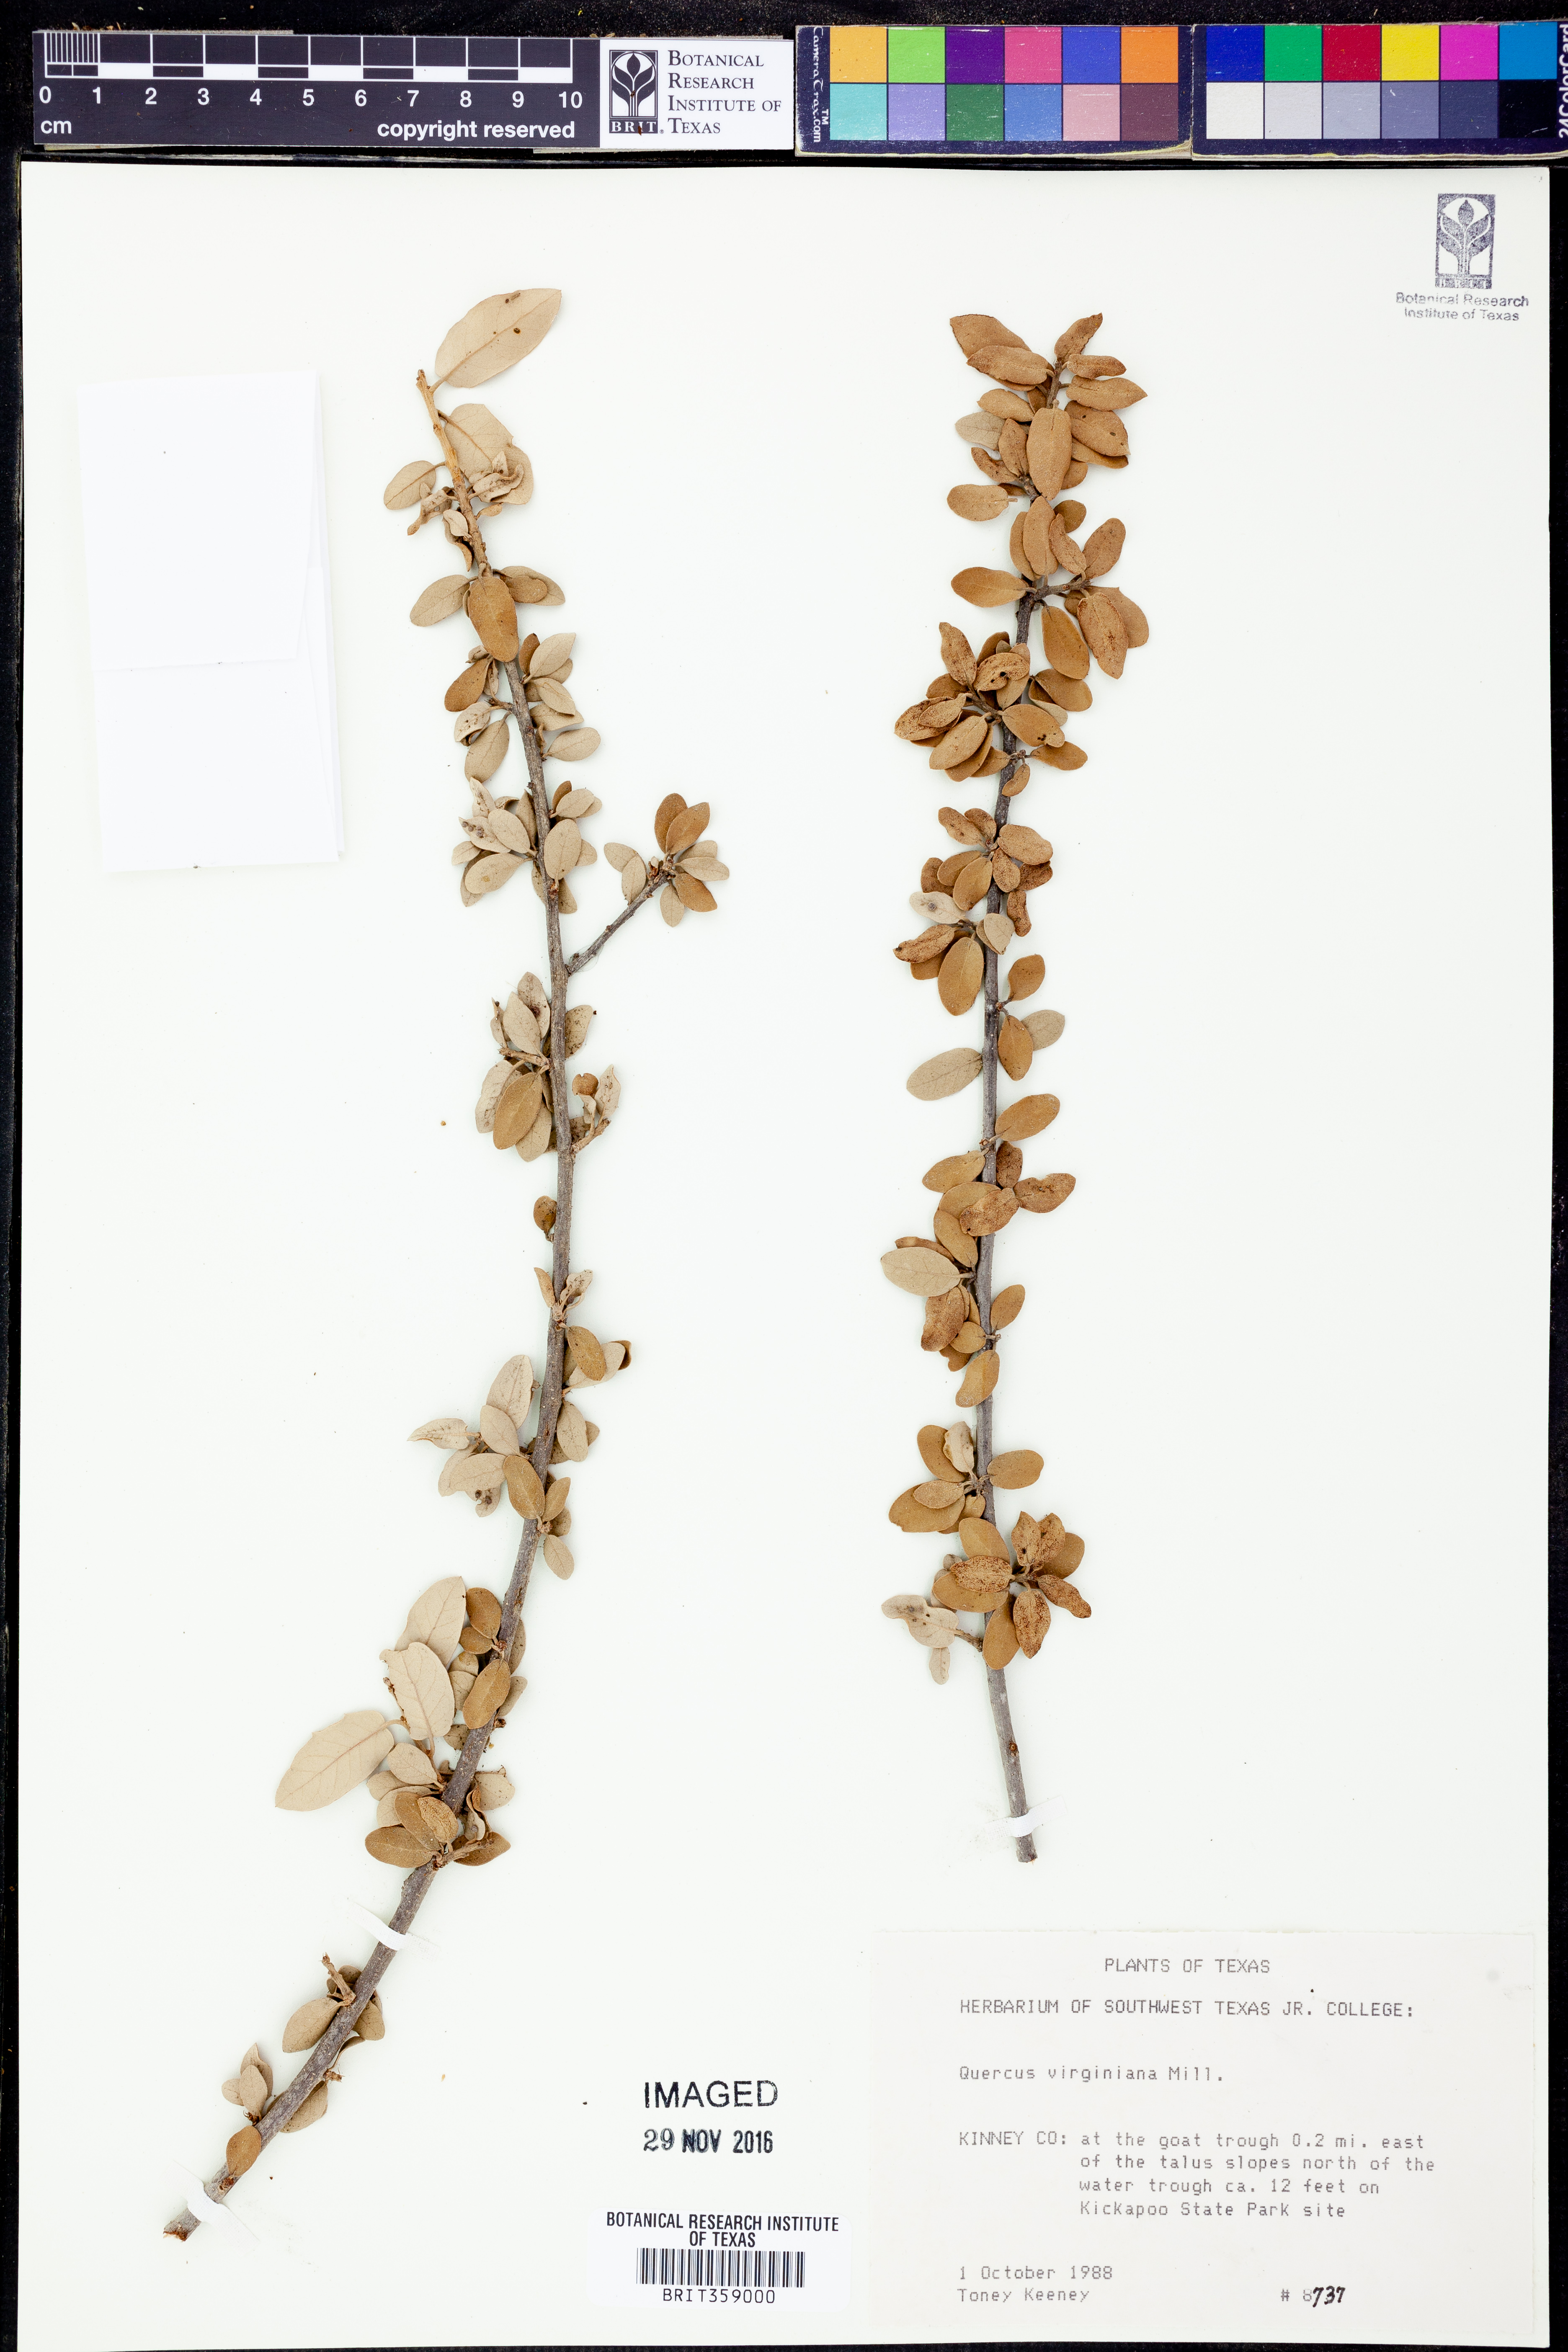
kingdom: Plantae
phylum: Tracheophyta
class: Magnoliopsida
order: Fagales
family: Fagaceae
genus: Quercus
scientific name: Quercus virginiana
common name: Southern live oak
